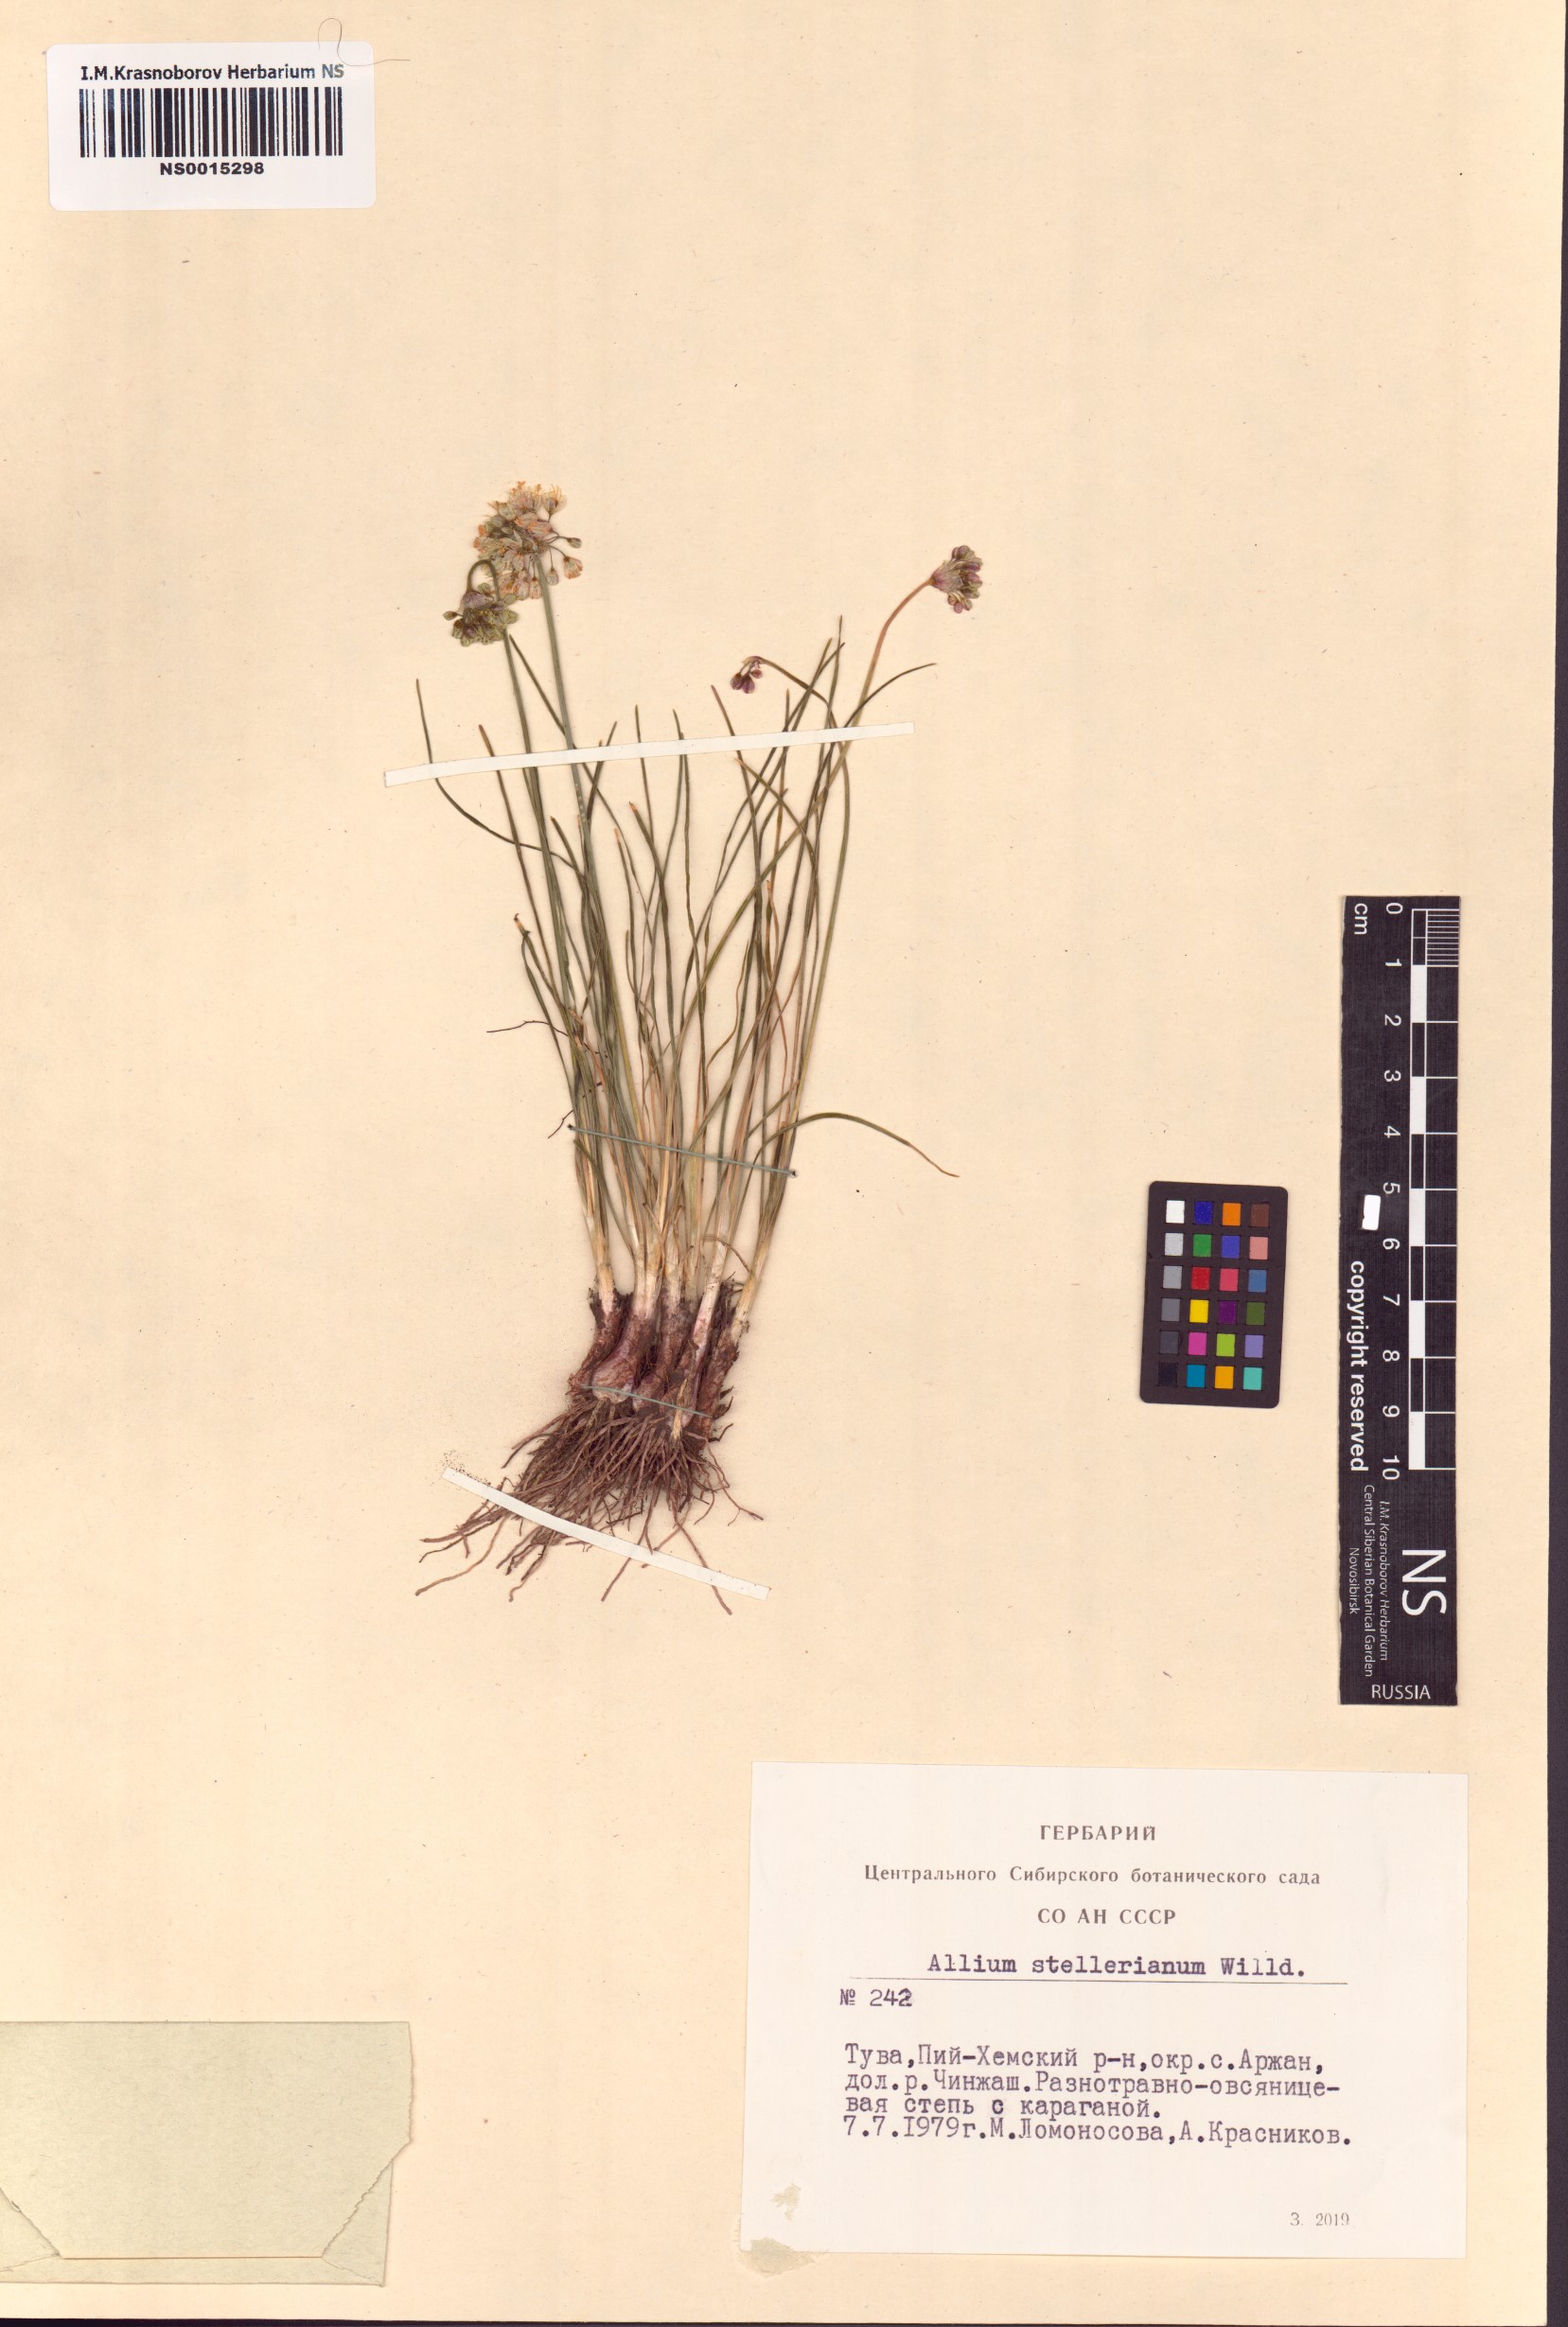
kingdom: Plantae
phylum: Tracheophyta
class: Liliopsida
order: Asparagales
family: Amaryllidaceae
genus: Allium
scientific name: Allium stellerianum
